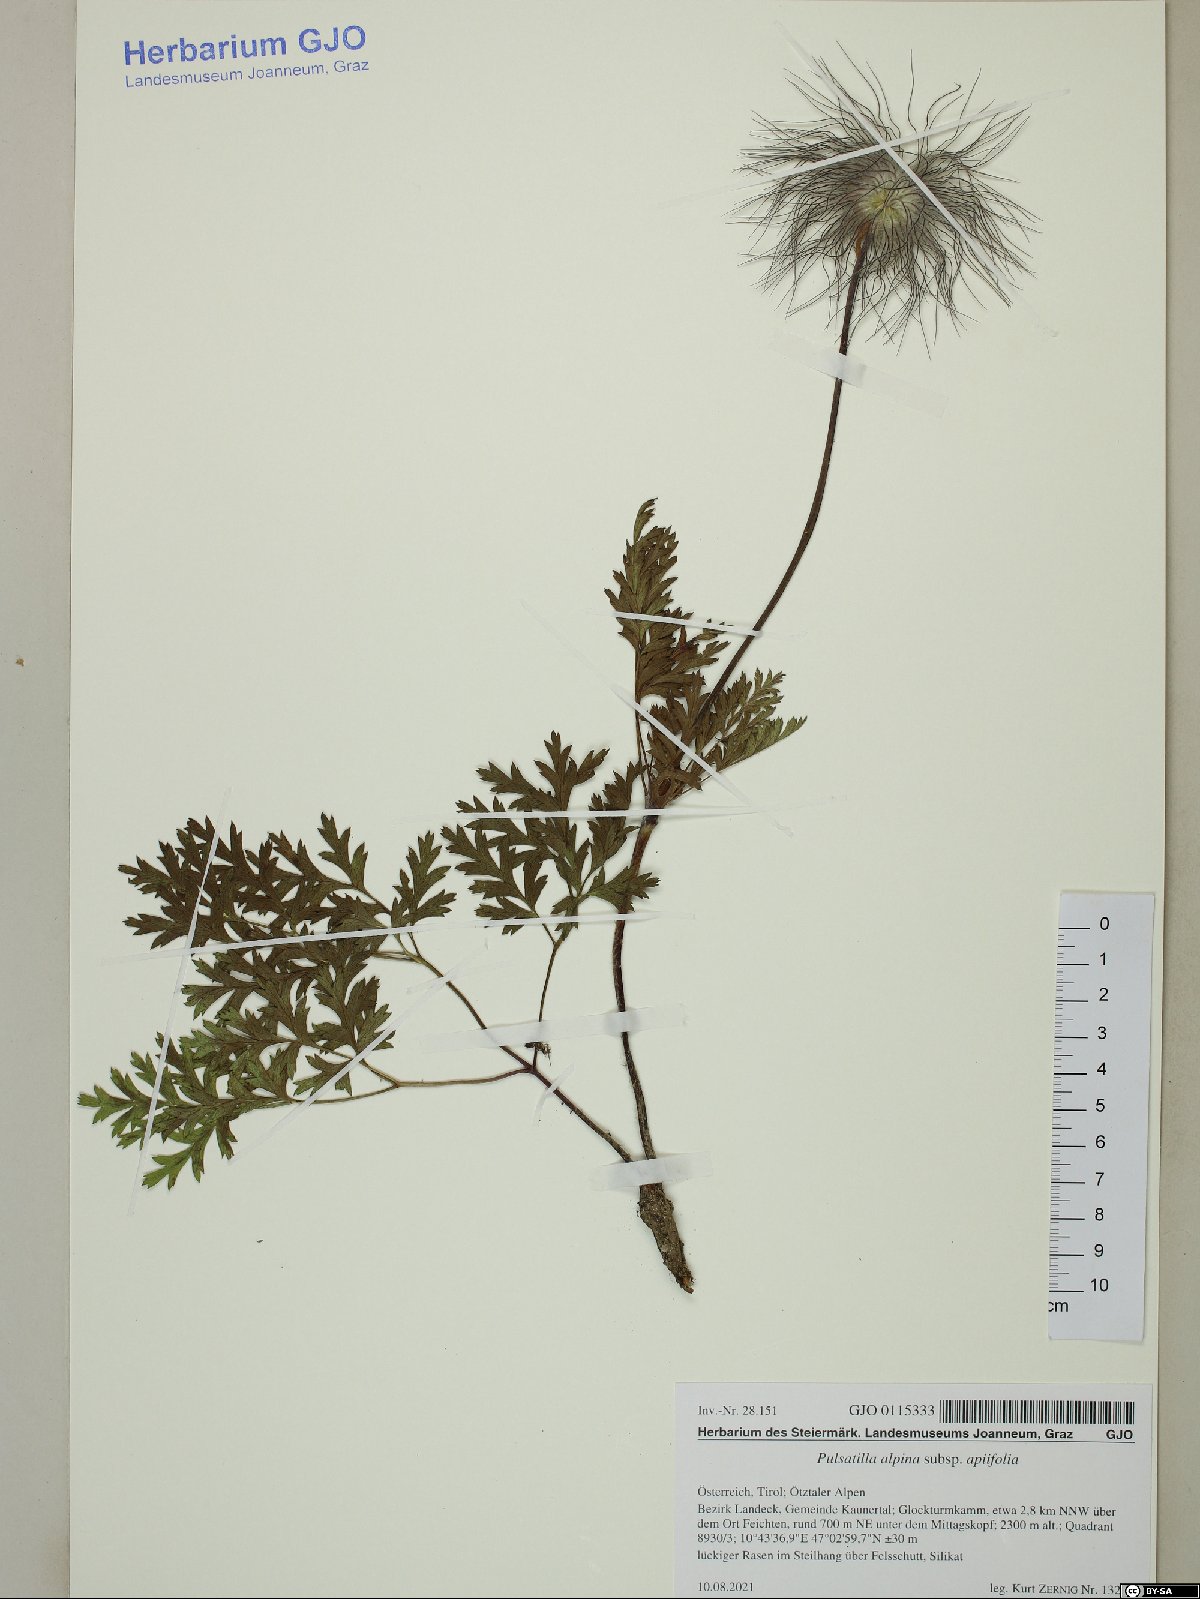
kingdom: Plantae
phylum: Tracheophyta
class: Magnoliopsida
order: Ranunculales
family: Ranunculaceae
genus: Pulsatilla
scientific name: Pulsatilla alpina
